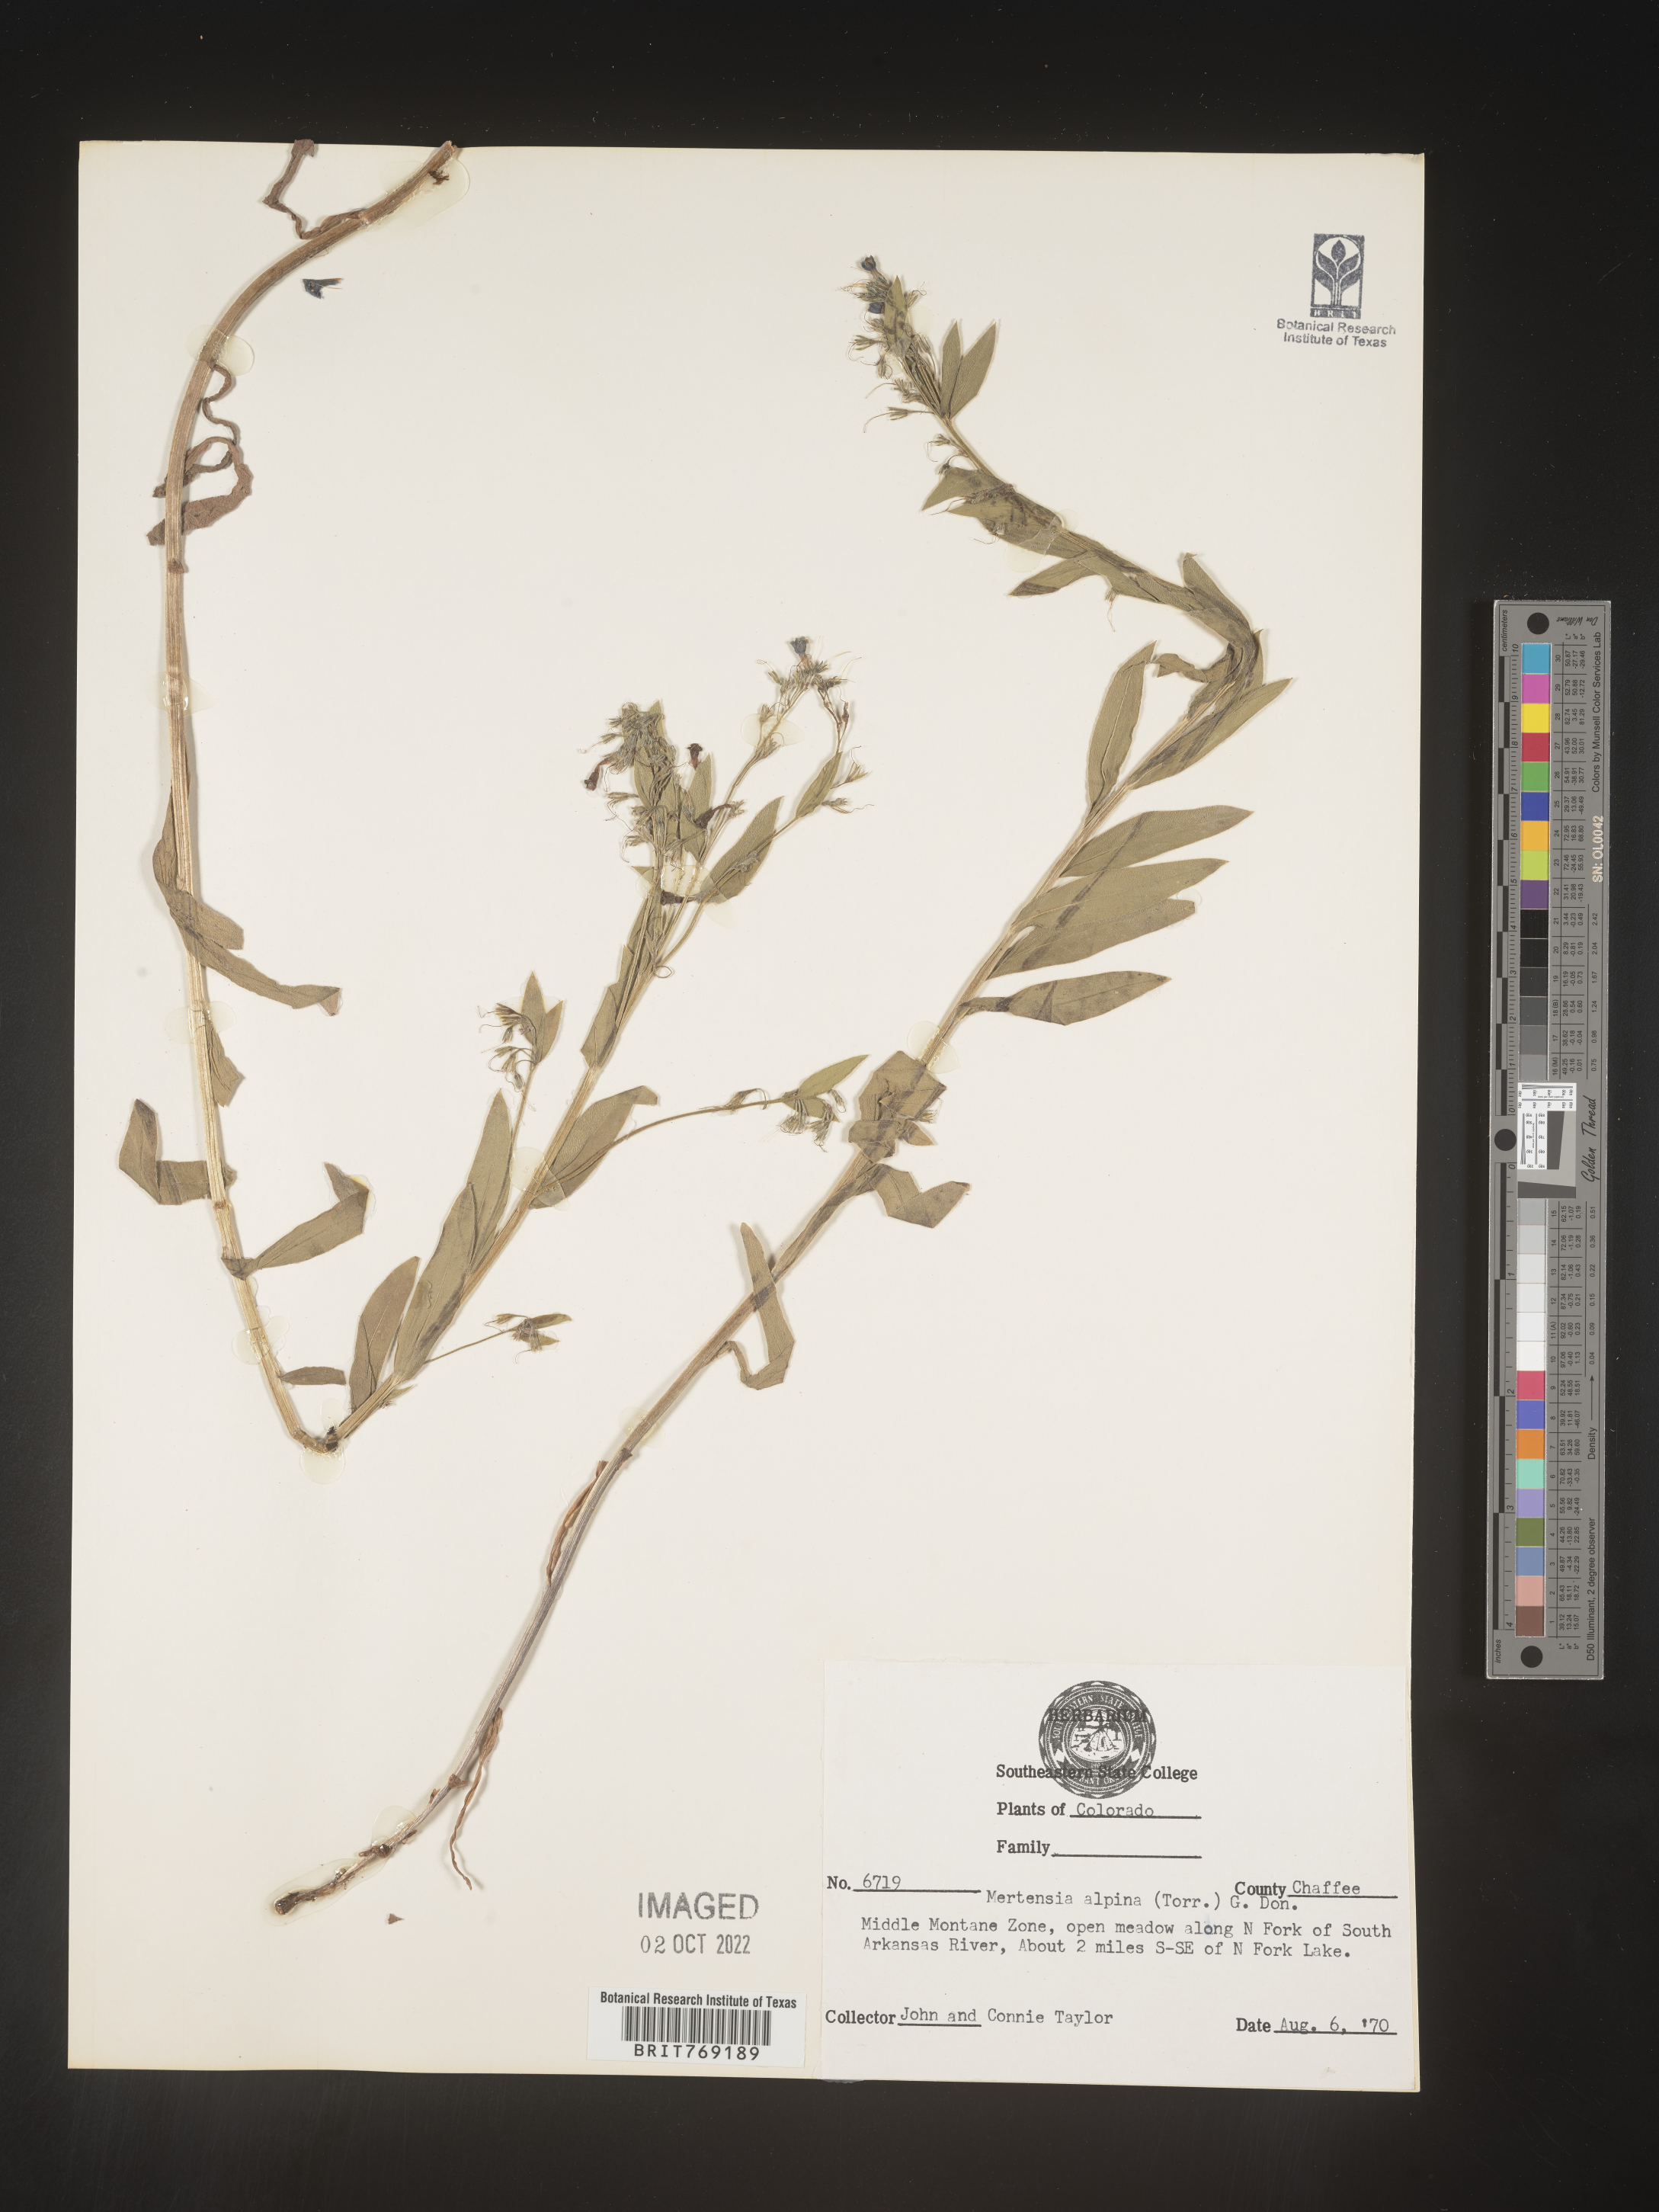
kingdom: Plantae
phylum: Tracheophyta
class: Magnoliopsida
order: Boraginales
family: Boraginaceae
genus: Mertensia
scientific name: Mertensia
